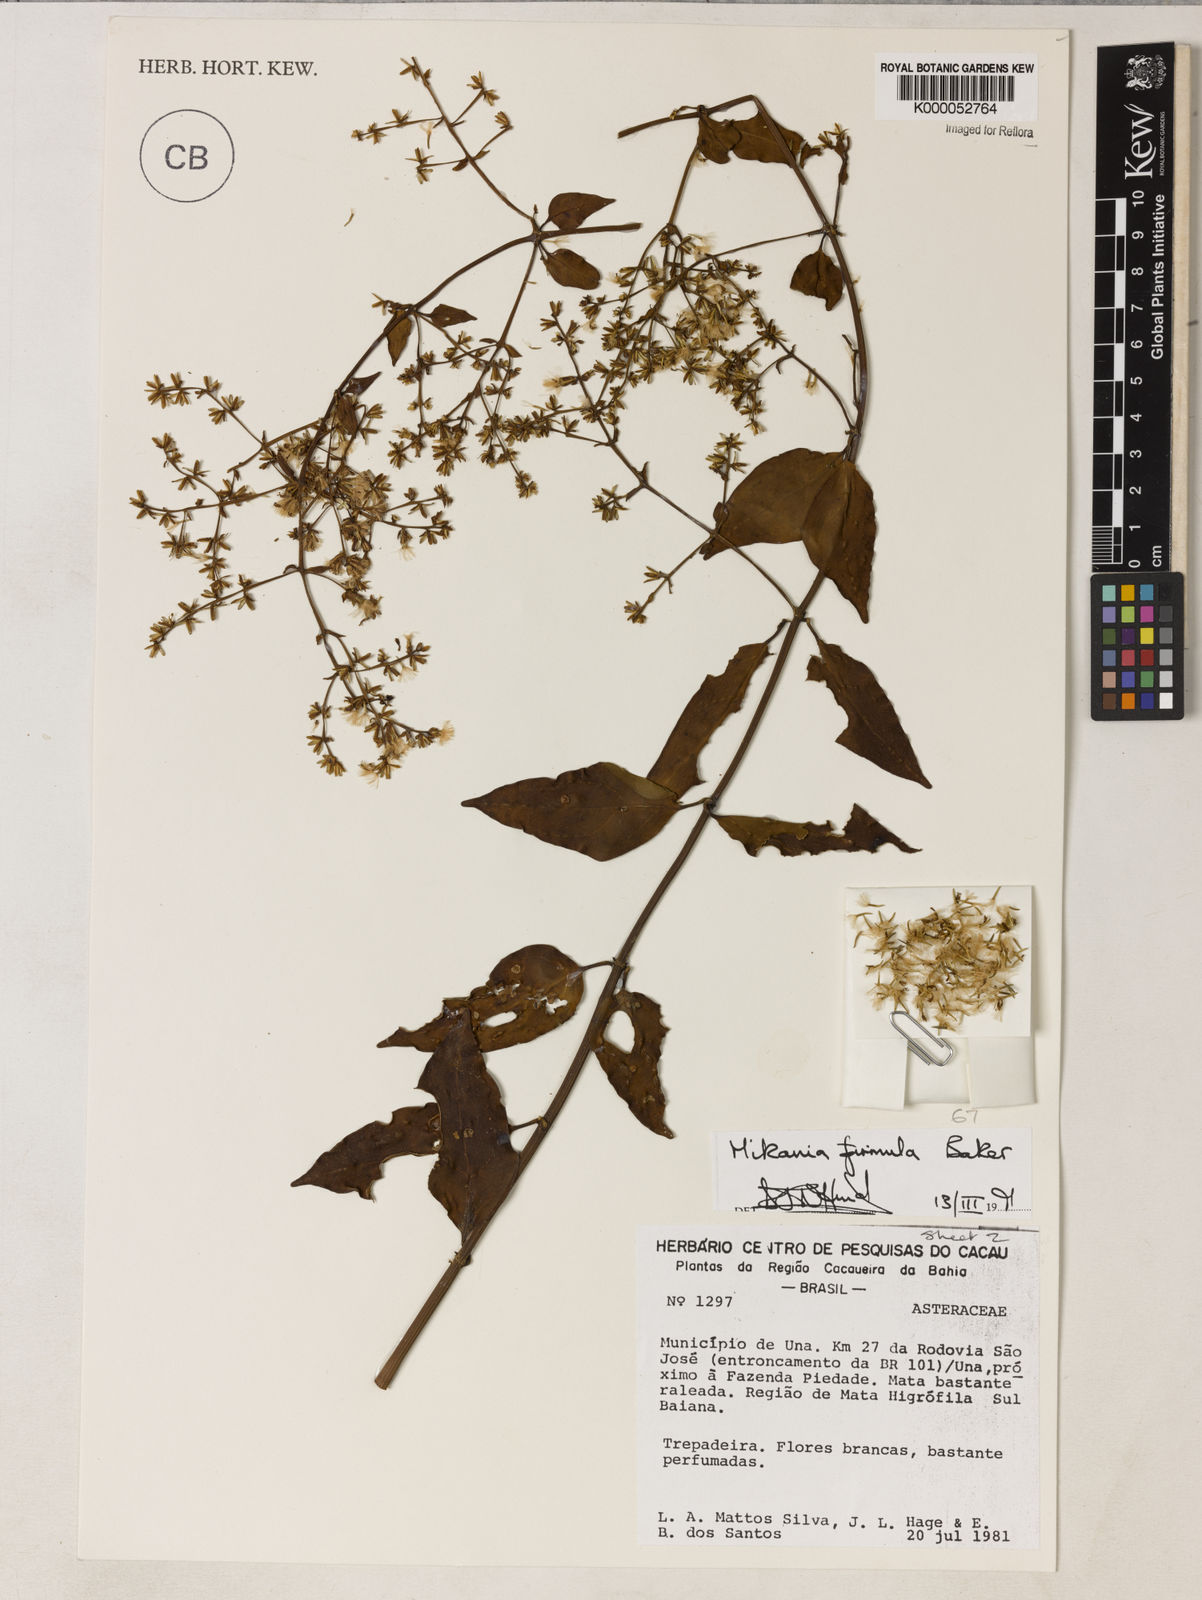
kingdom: Plantae
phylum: Tracheophyta
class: Magnoliopsida
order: Asterales
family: Asteraceae
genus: Mikania
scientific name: Mikania firmula
